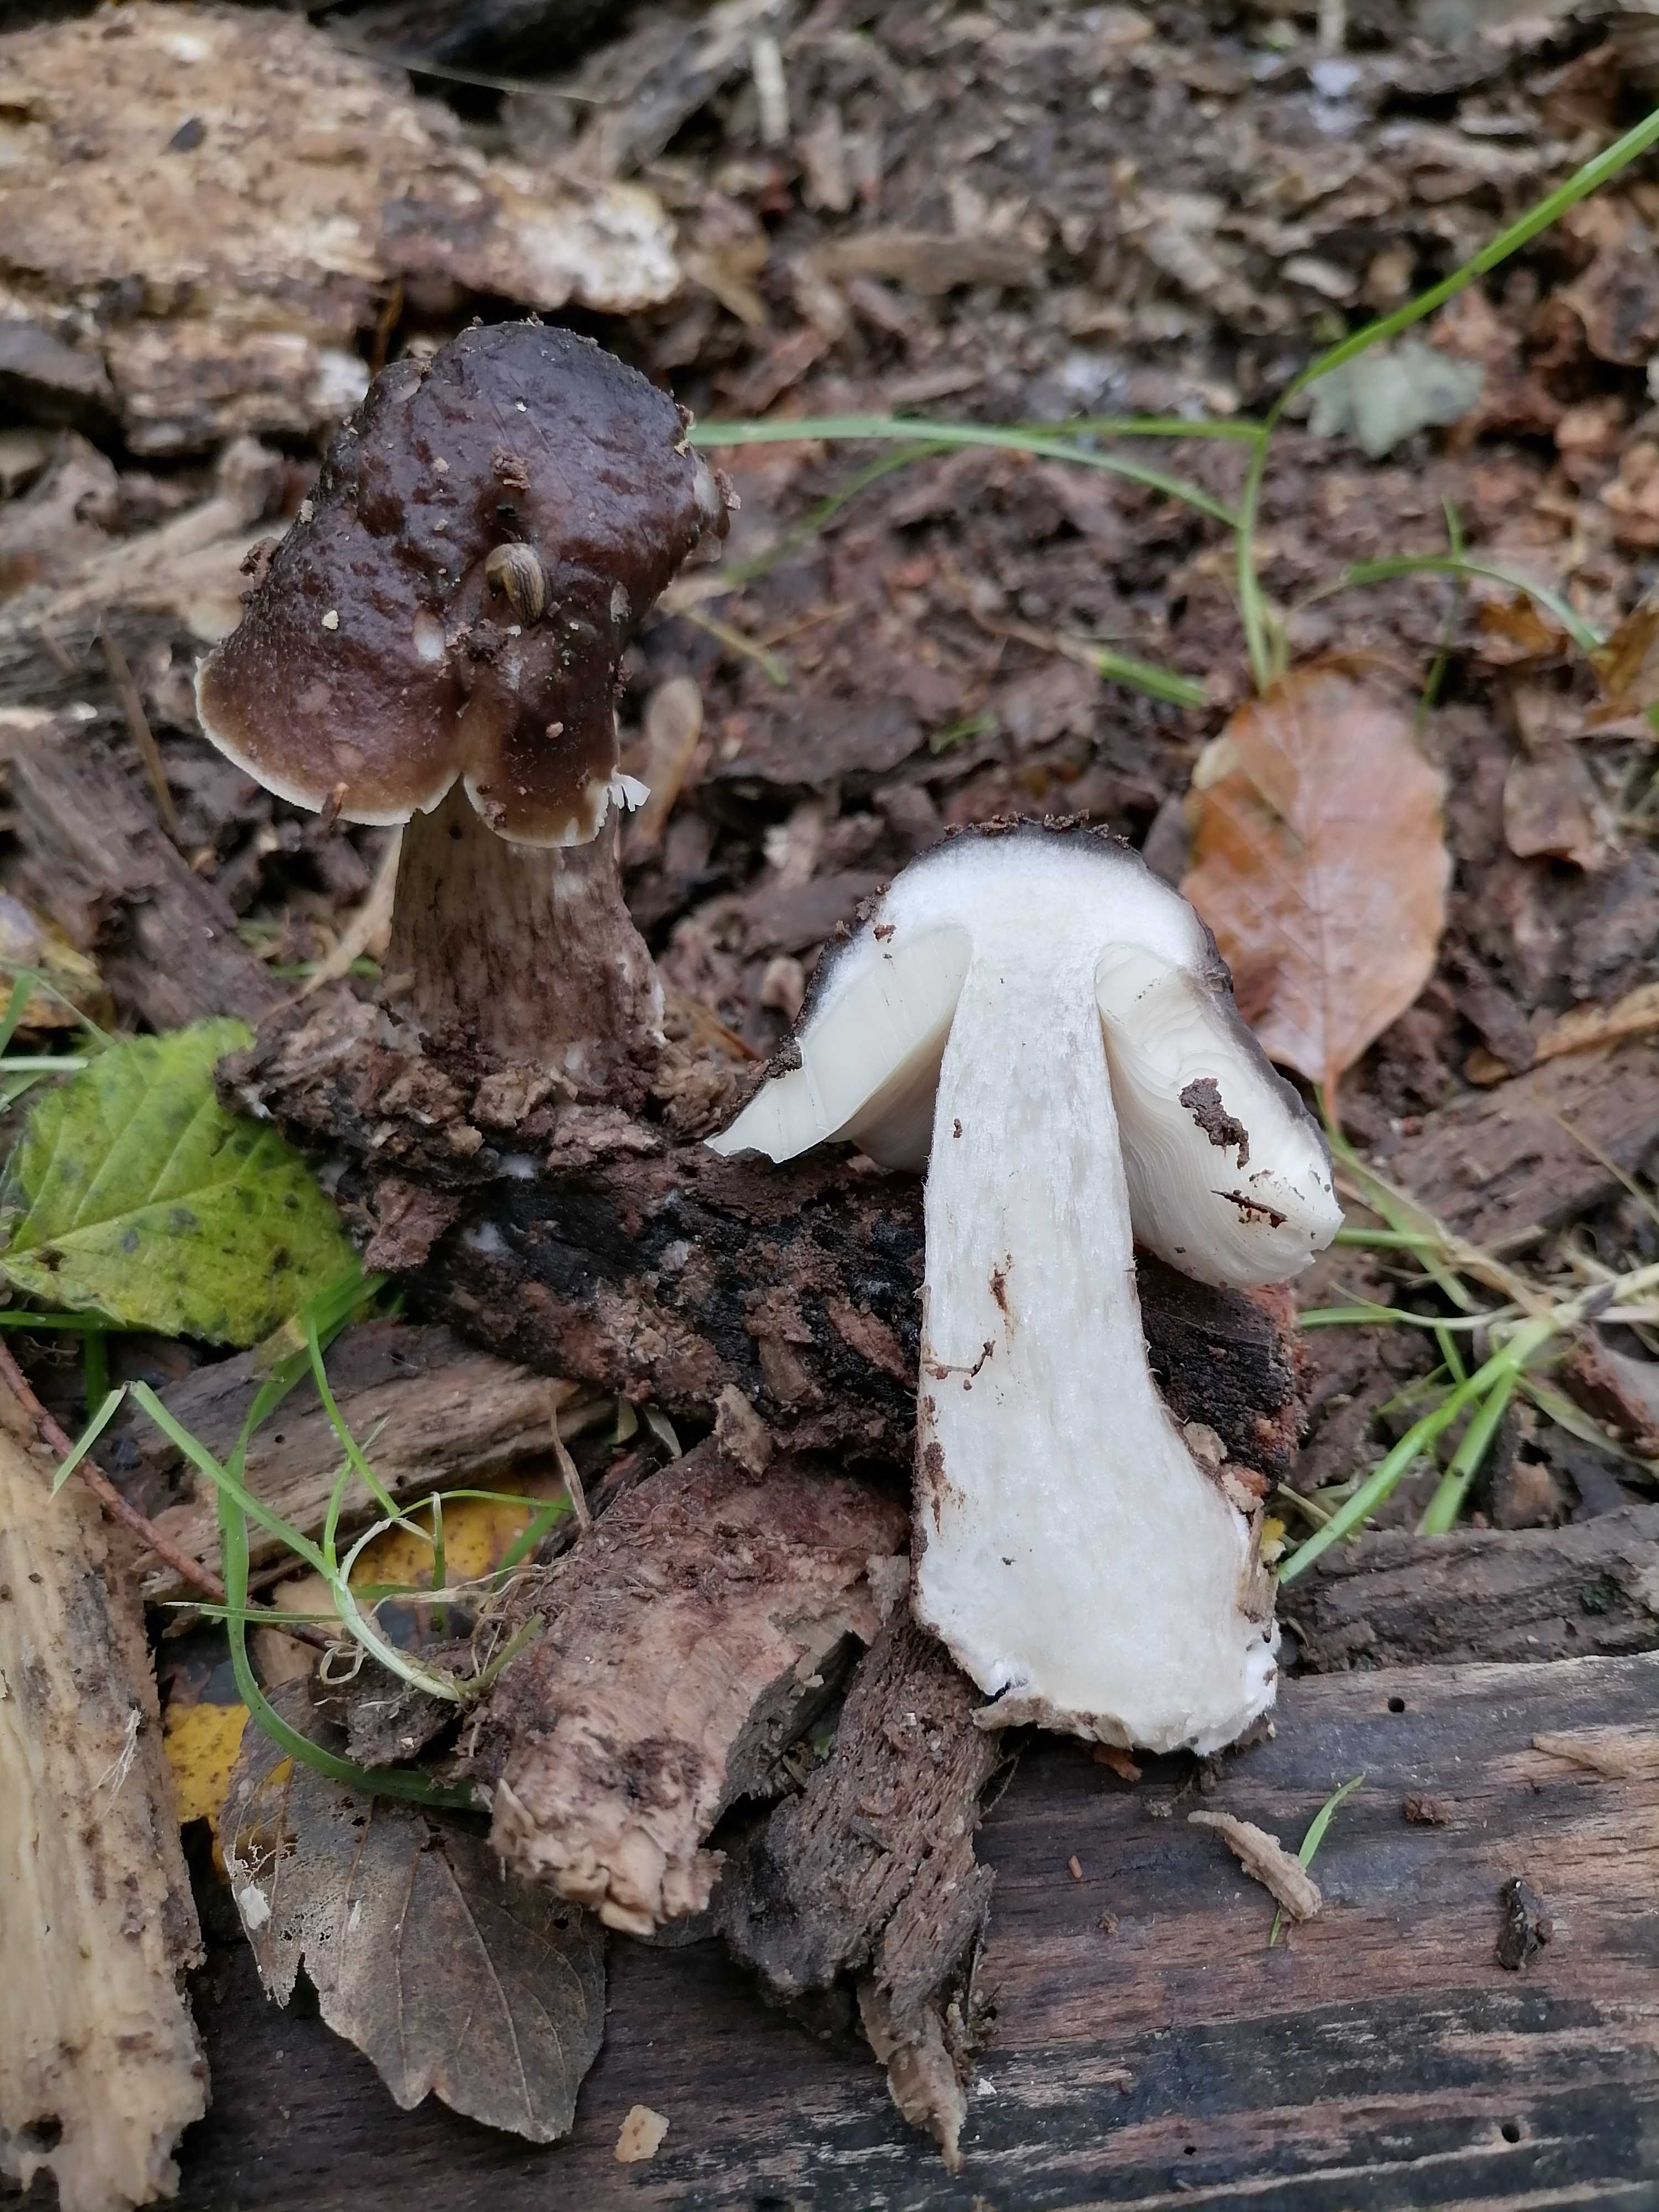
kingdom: Fungi
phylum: Basidiomycota
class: Agaricomycetes
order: Agaricales
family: Pluteaceae
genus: Pluteus
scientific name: Pluteus cervinus
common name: sodfarvet skærmhat
